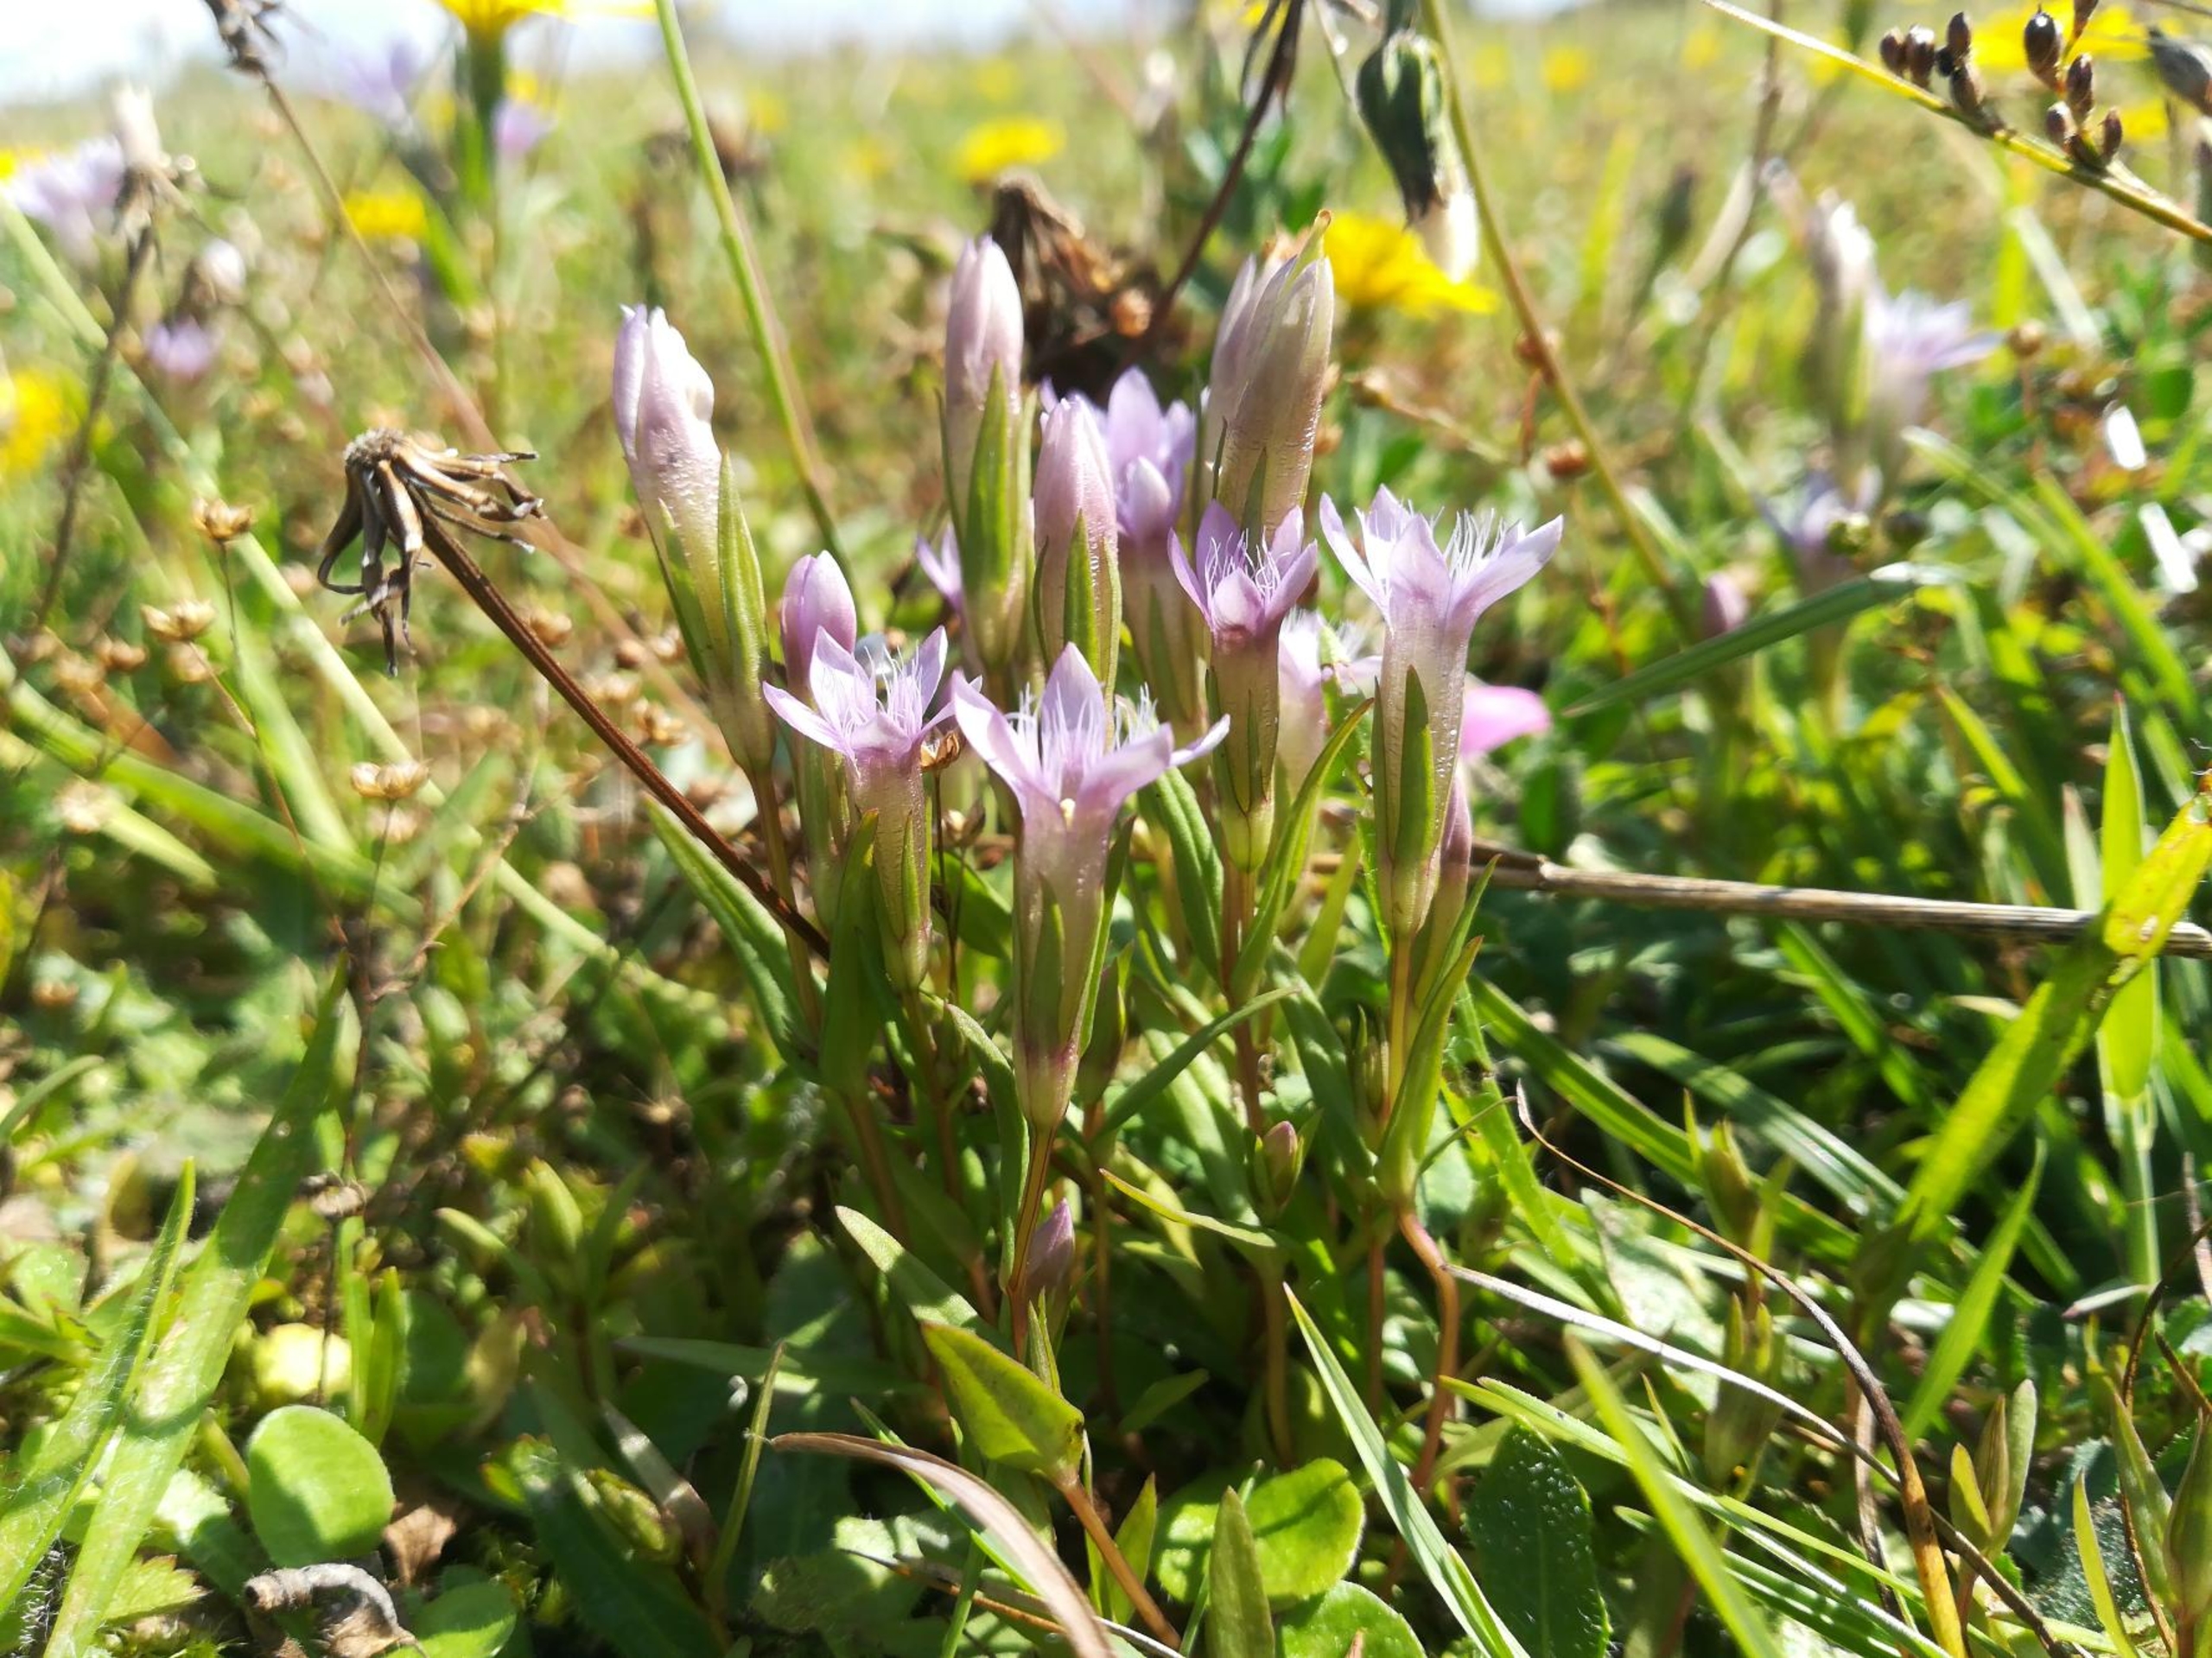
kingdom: Plantae
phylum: Tracheophyta
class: Magnoliopsida
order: Gentianales
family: Gentianaceae
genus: Gentianella
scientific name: Gentianella uliginosa
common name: Eng-ensian
